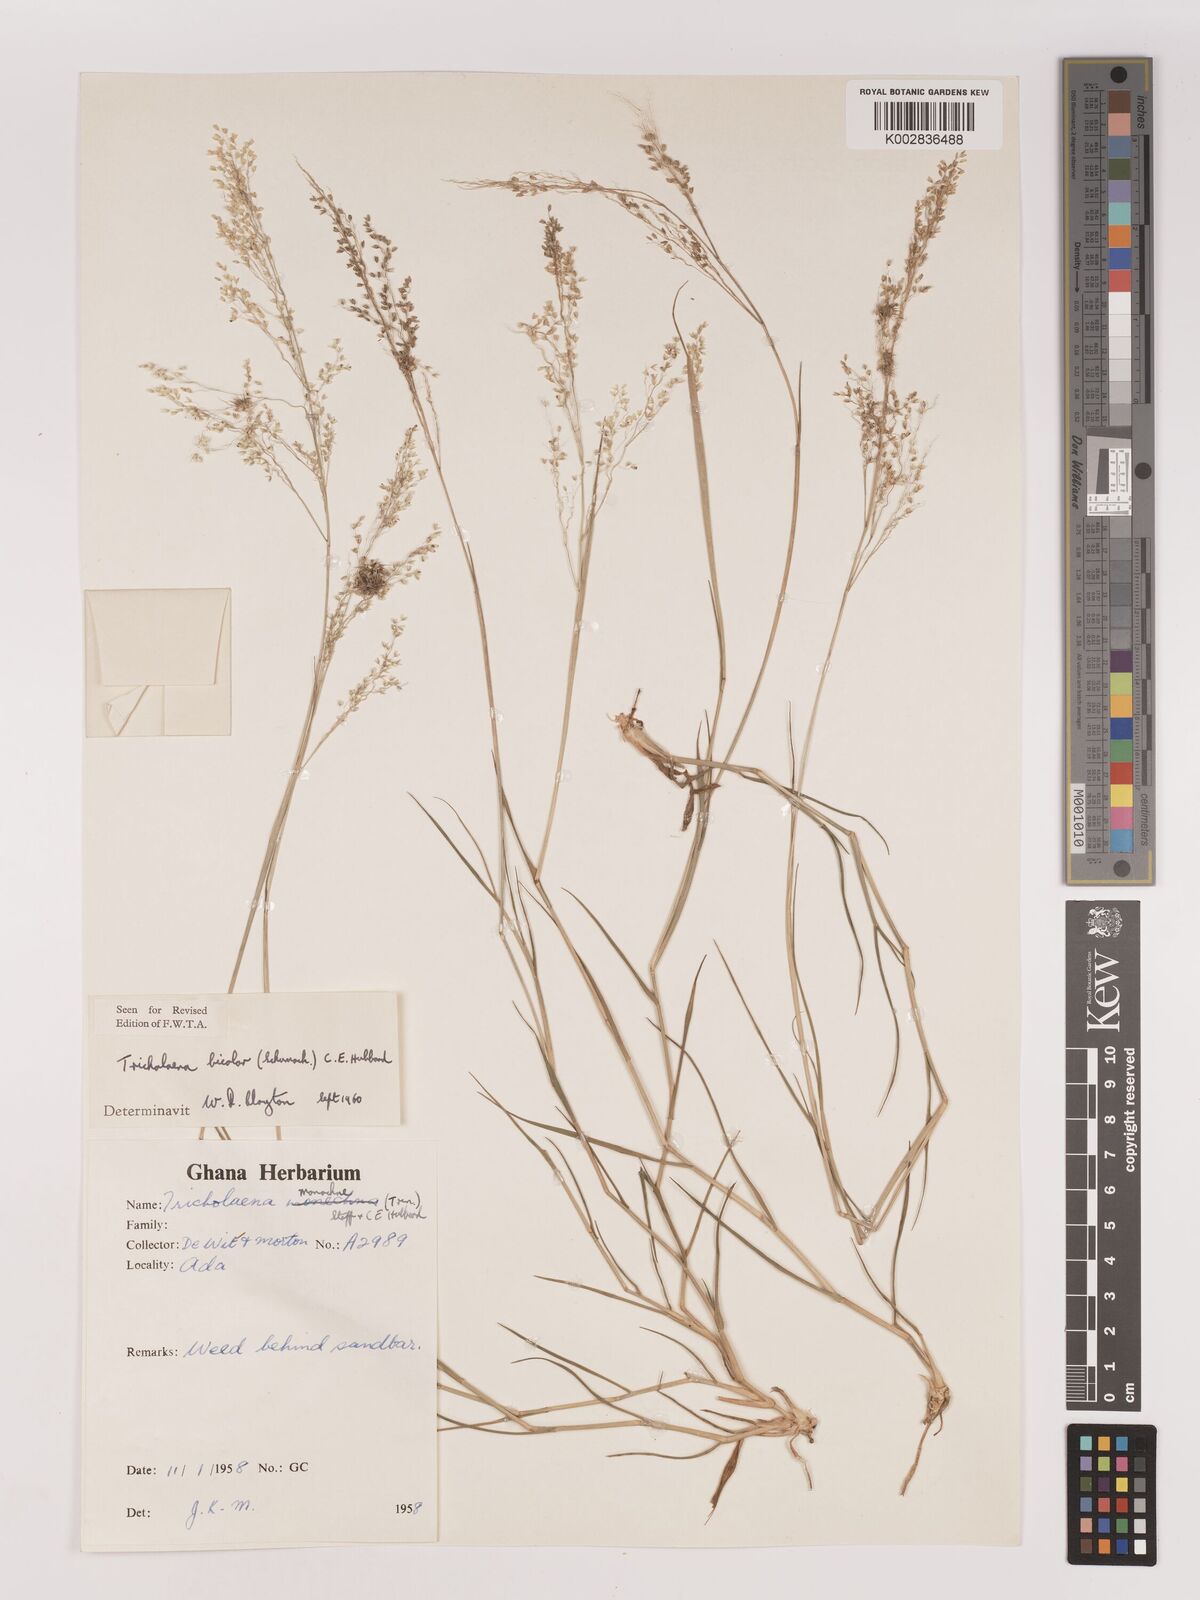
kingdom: Plantae
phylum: Tracheophyta
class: Liliopsida
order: Poales
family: Poaceae
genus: Tricholaena
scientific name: Tricholaena monachne
